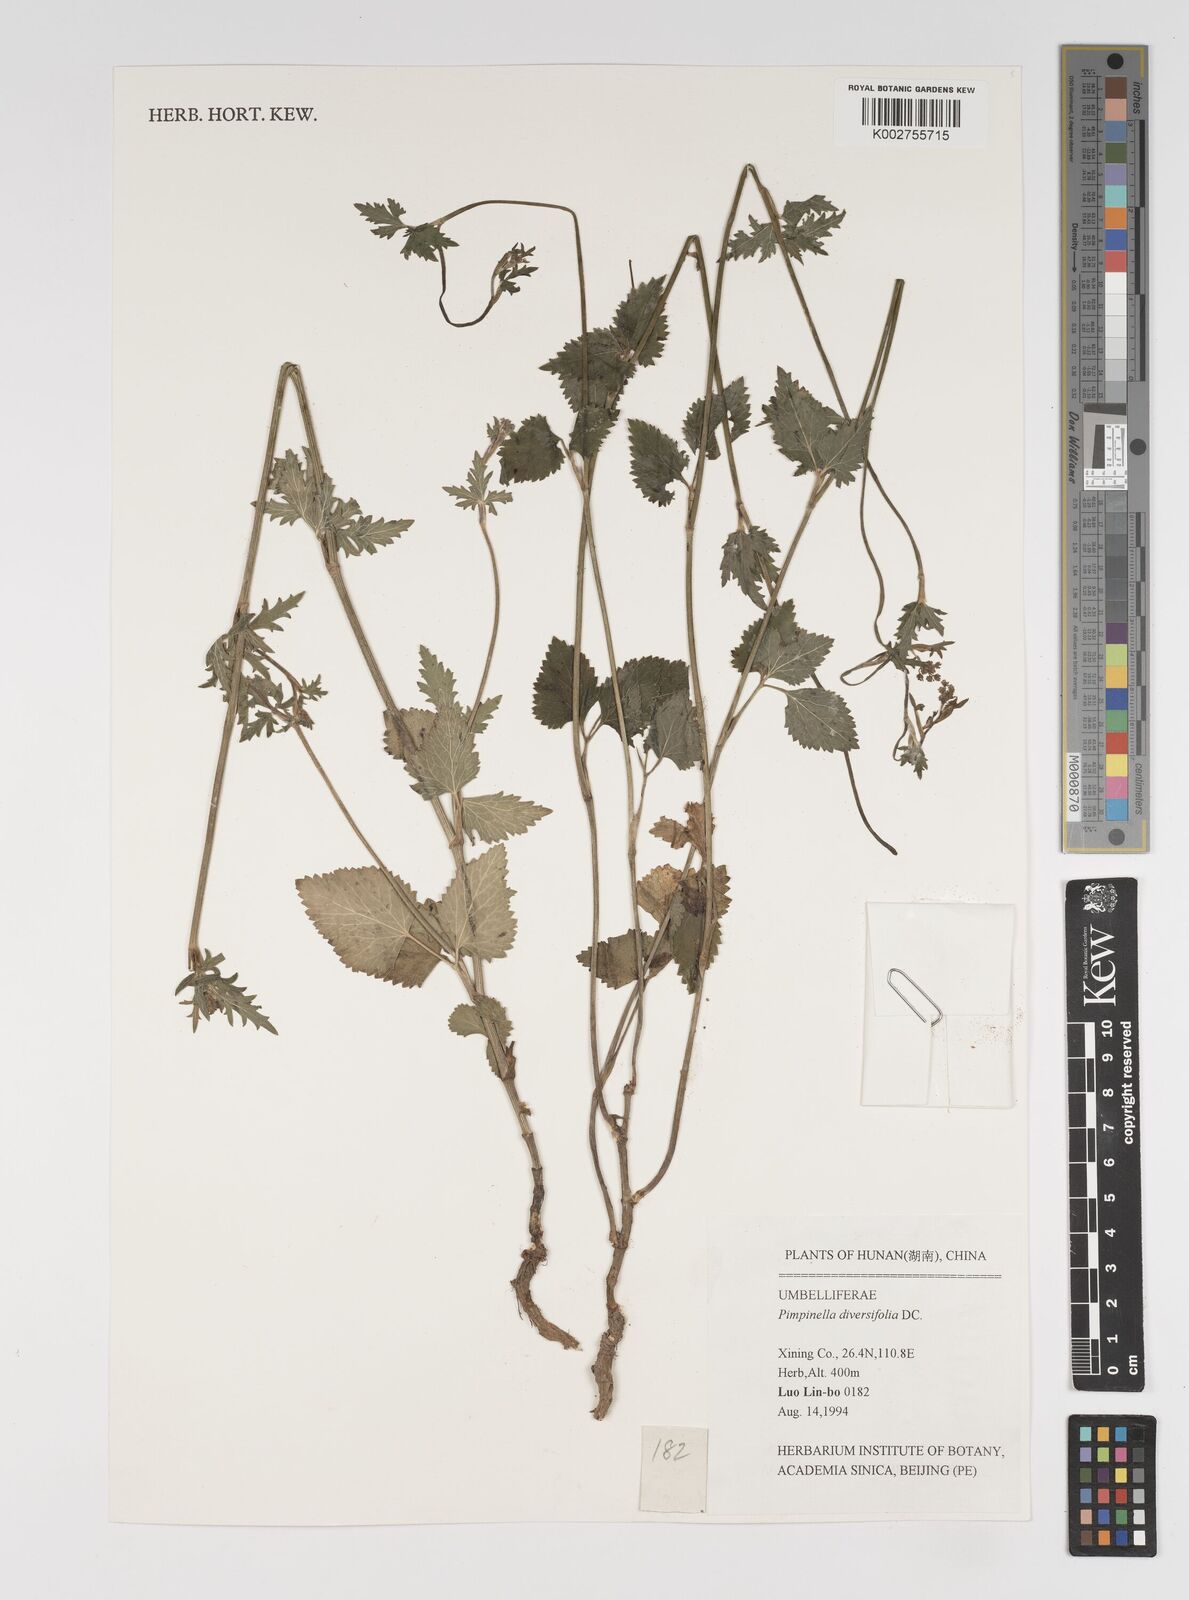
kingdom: Plantae
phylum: Tracheophyta
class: Magnoliopsida
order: Apiales
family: Apiaceae
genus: Pimpinella
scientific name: Pimpinella diversifolia
